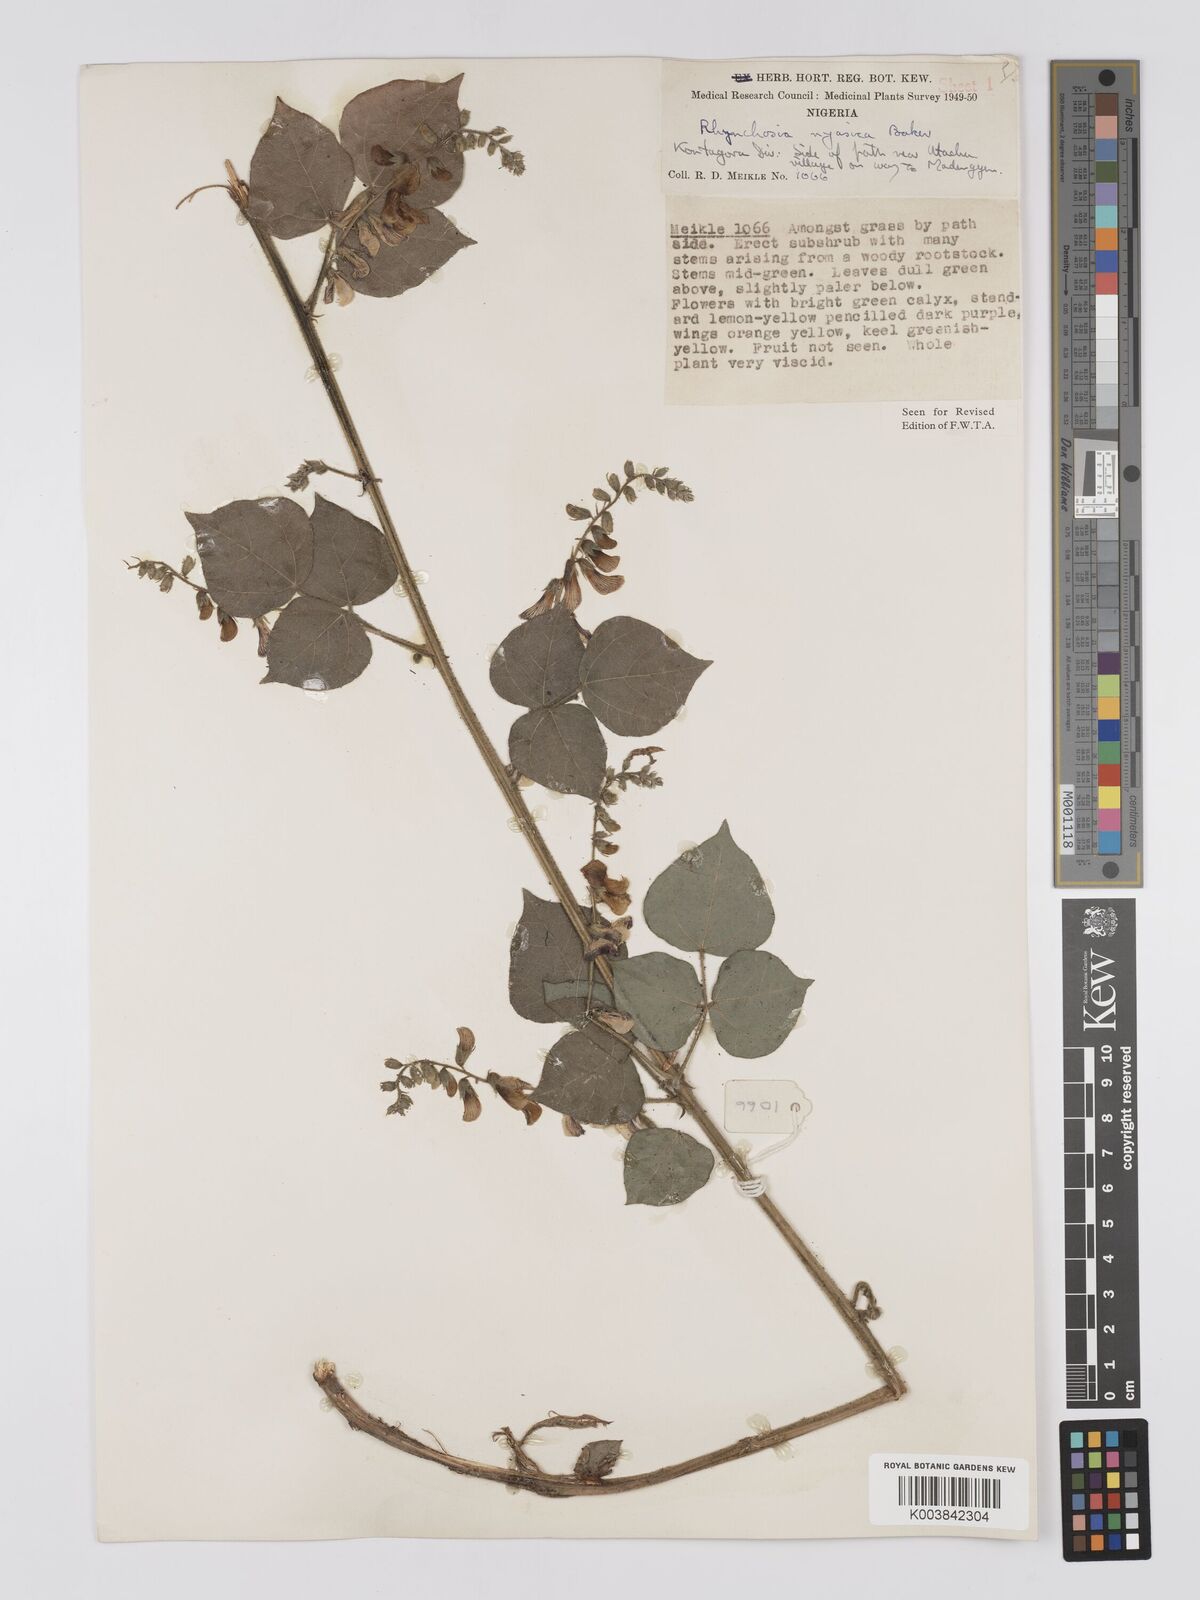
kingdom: Plantae
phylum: Tracheophyta
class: Magnoliopsida
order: Fabales
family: Fabaceae
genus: Rhynchosia
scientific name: Rhynchosia nyasica
